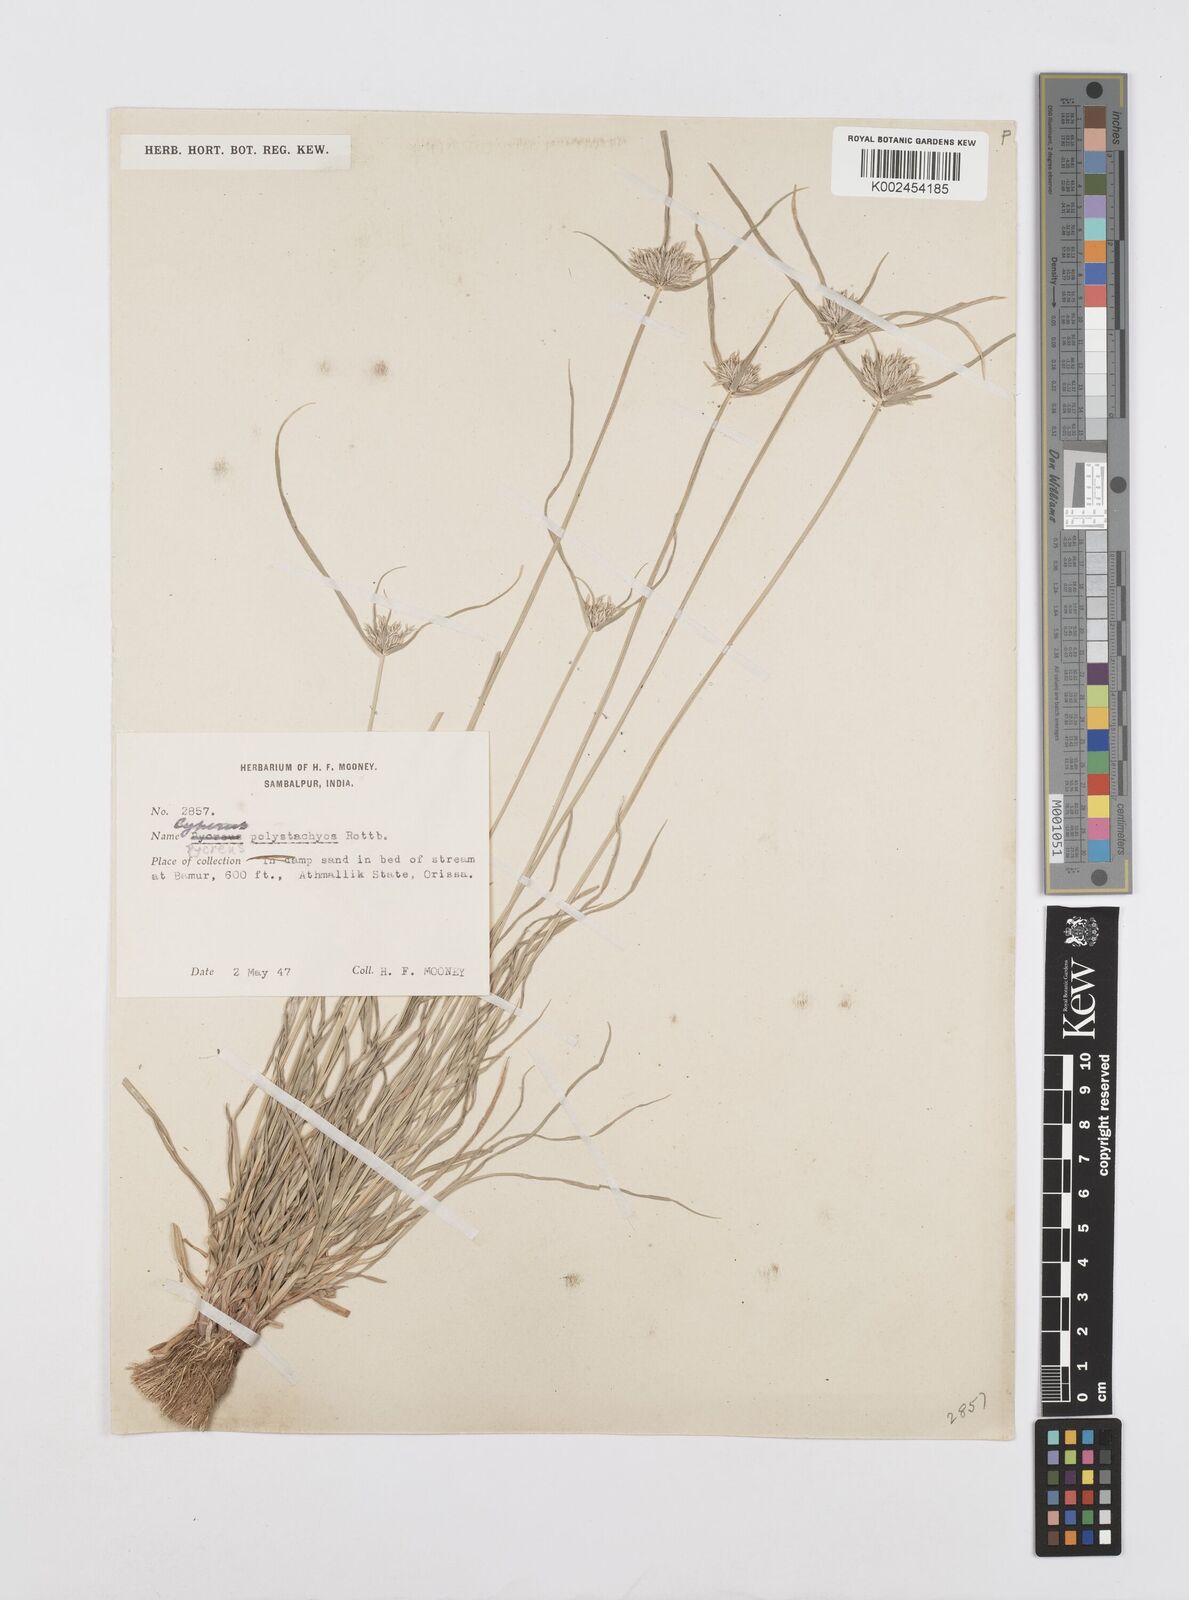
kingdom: Plantae
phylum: Tracheophyta
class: Liliopsida
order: Poales
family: Cyperaceae
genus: Cyperus
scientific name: Cyperus polystachyos
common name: Bunchy flat sedge
